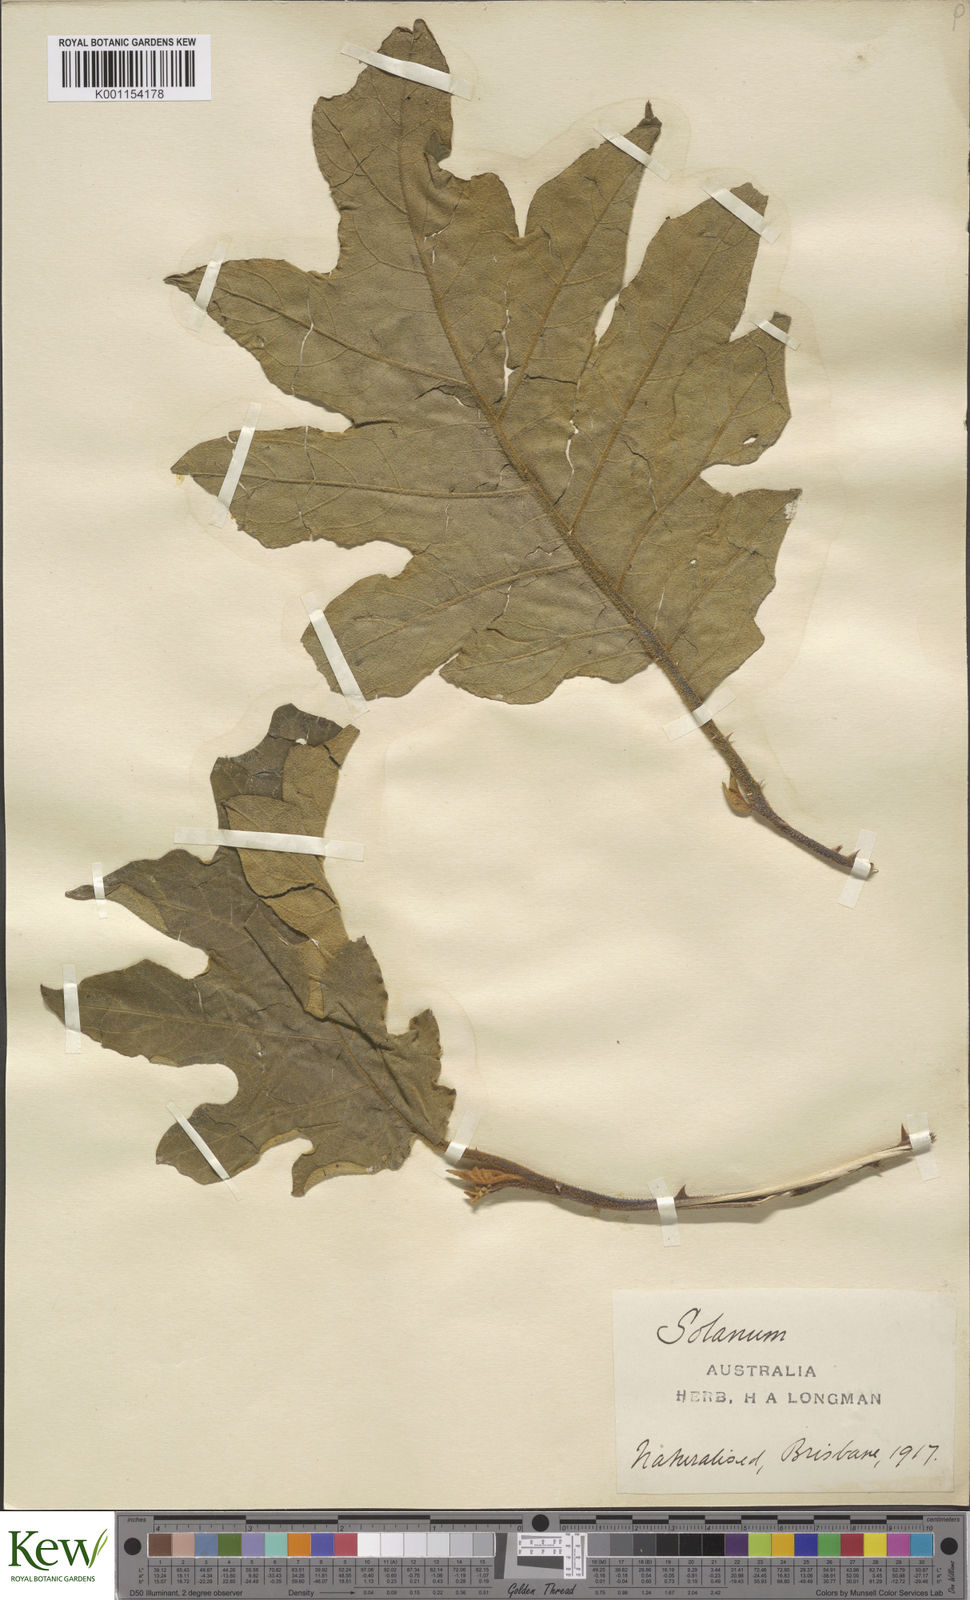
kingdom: Plantae
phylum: Tracheophyta
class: Magnoliopsida
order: Solanales
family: Solanaceae
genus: Solanum
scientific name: Solanum asperolanatum
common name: Devil's-fig
